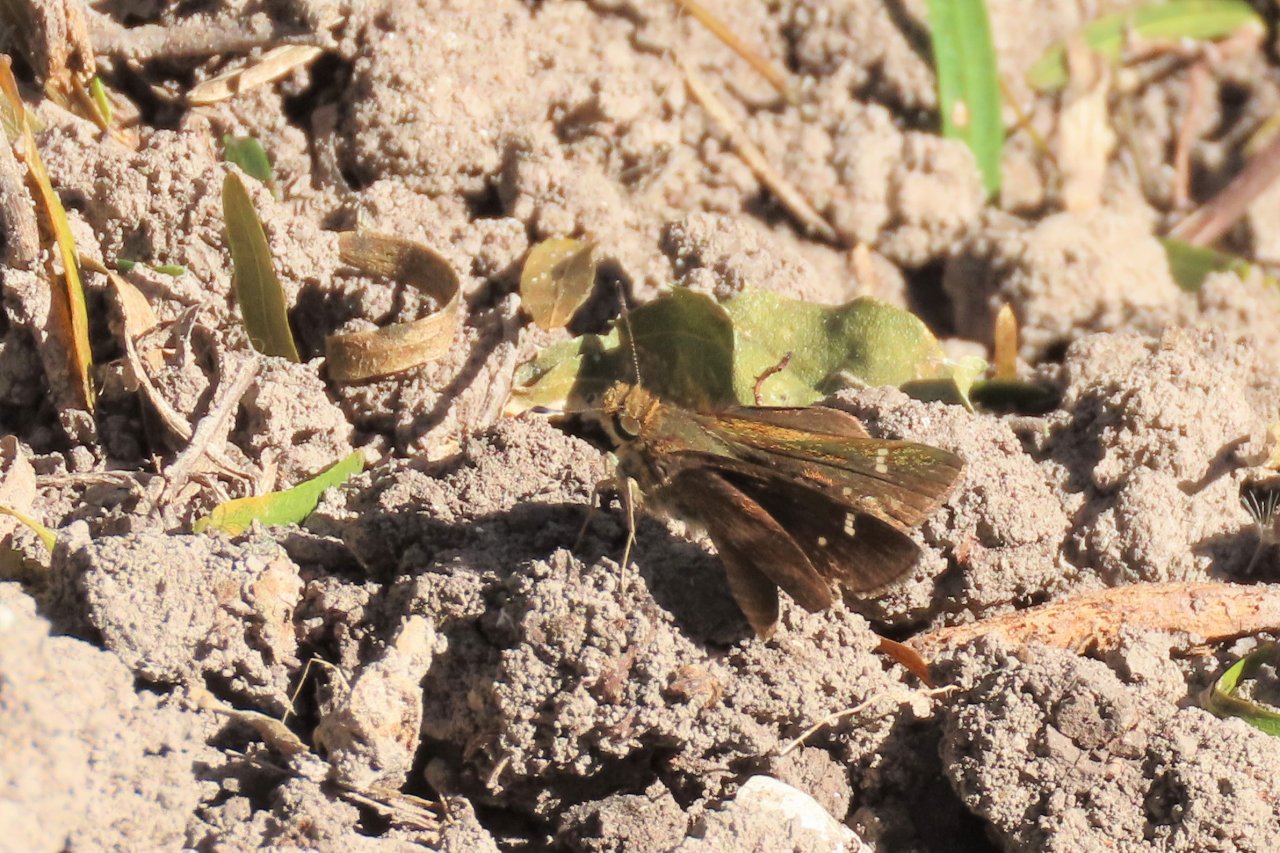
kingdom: Animalia
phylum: Arthropoda
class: Insecta
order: Lepidoptera
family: Hesperiidae
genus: Lerema
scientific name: Lerema accius
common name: Clouded Skipper
